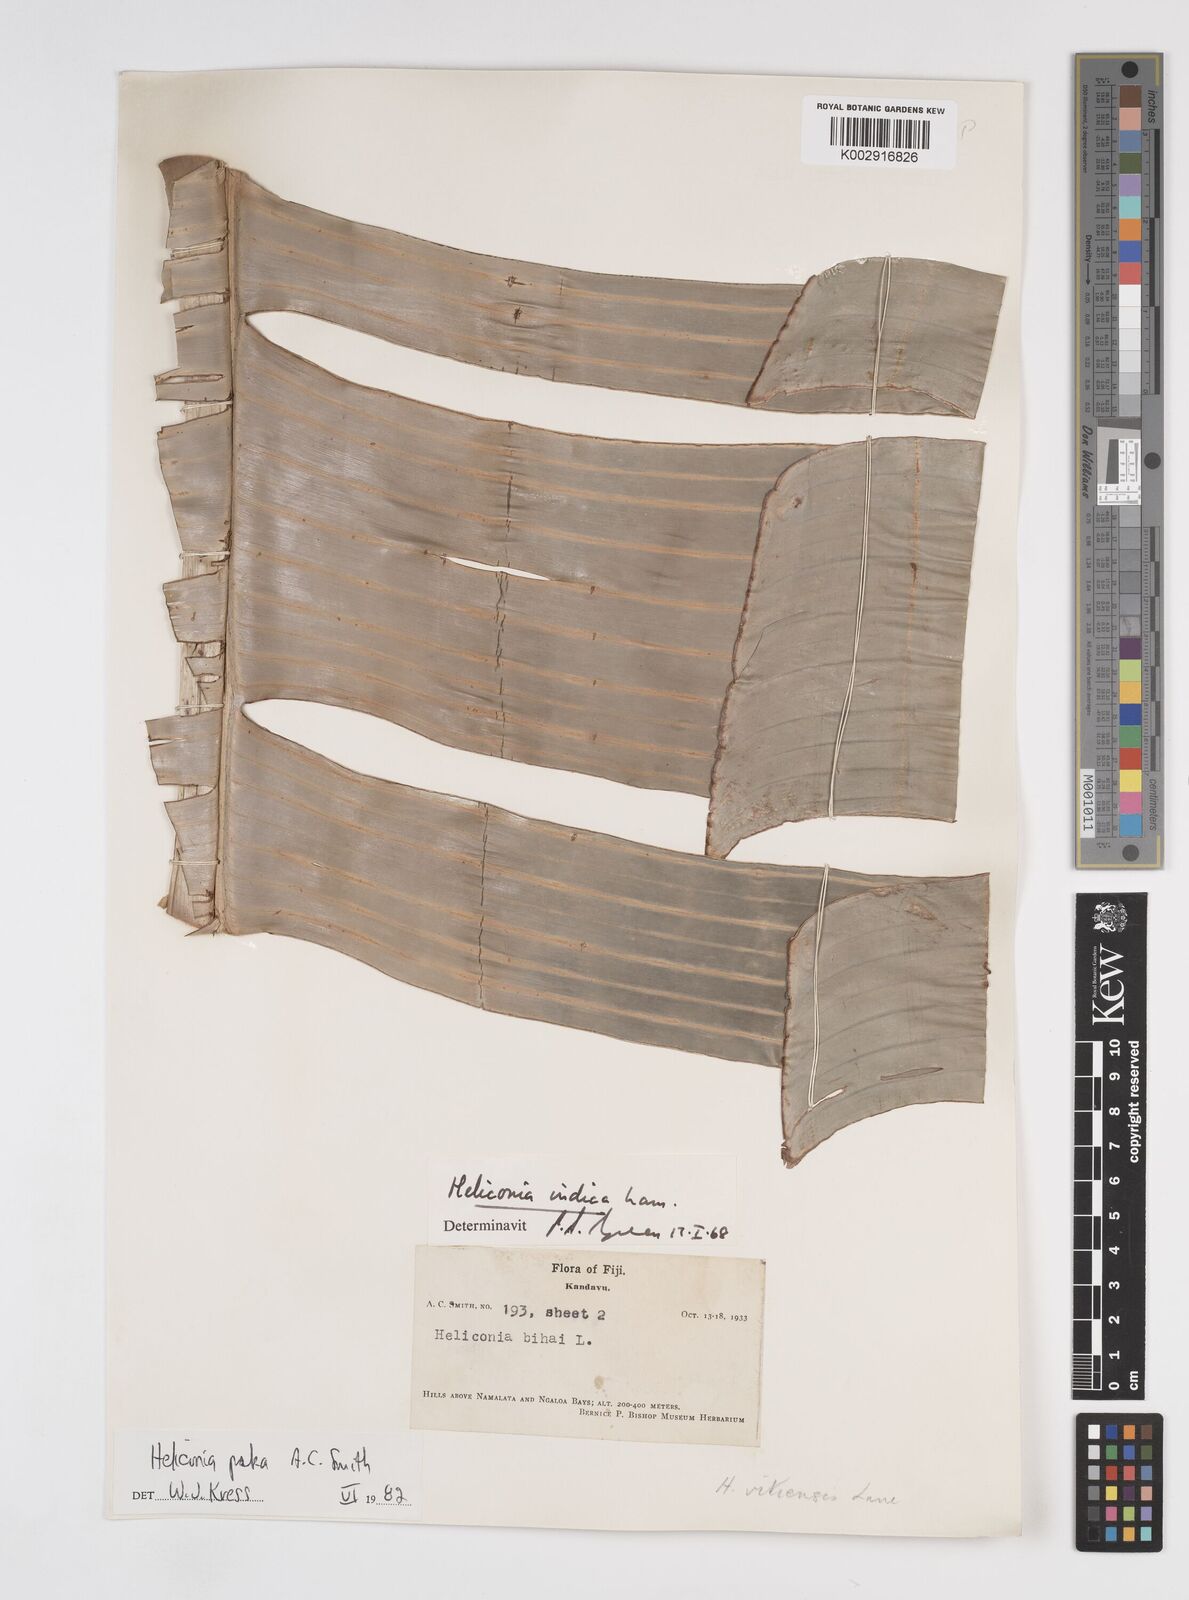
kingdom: Plantae
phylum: Tracheophyta
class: Liliopsida
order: Zingiberales
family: Heliconiaceae
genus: Heliconia
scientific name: Heliconia paka
